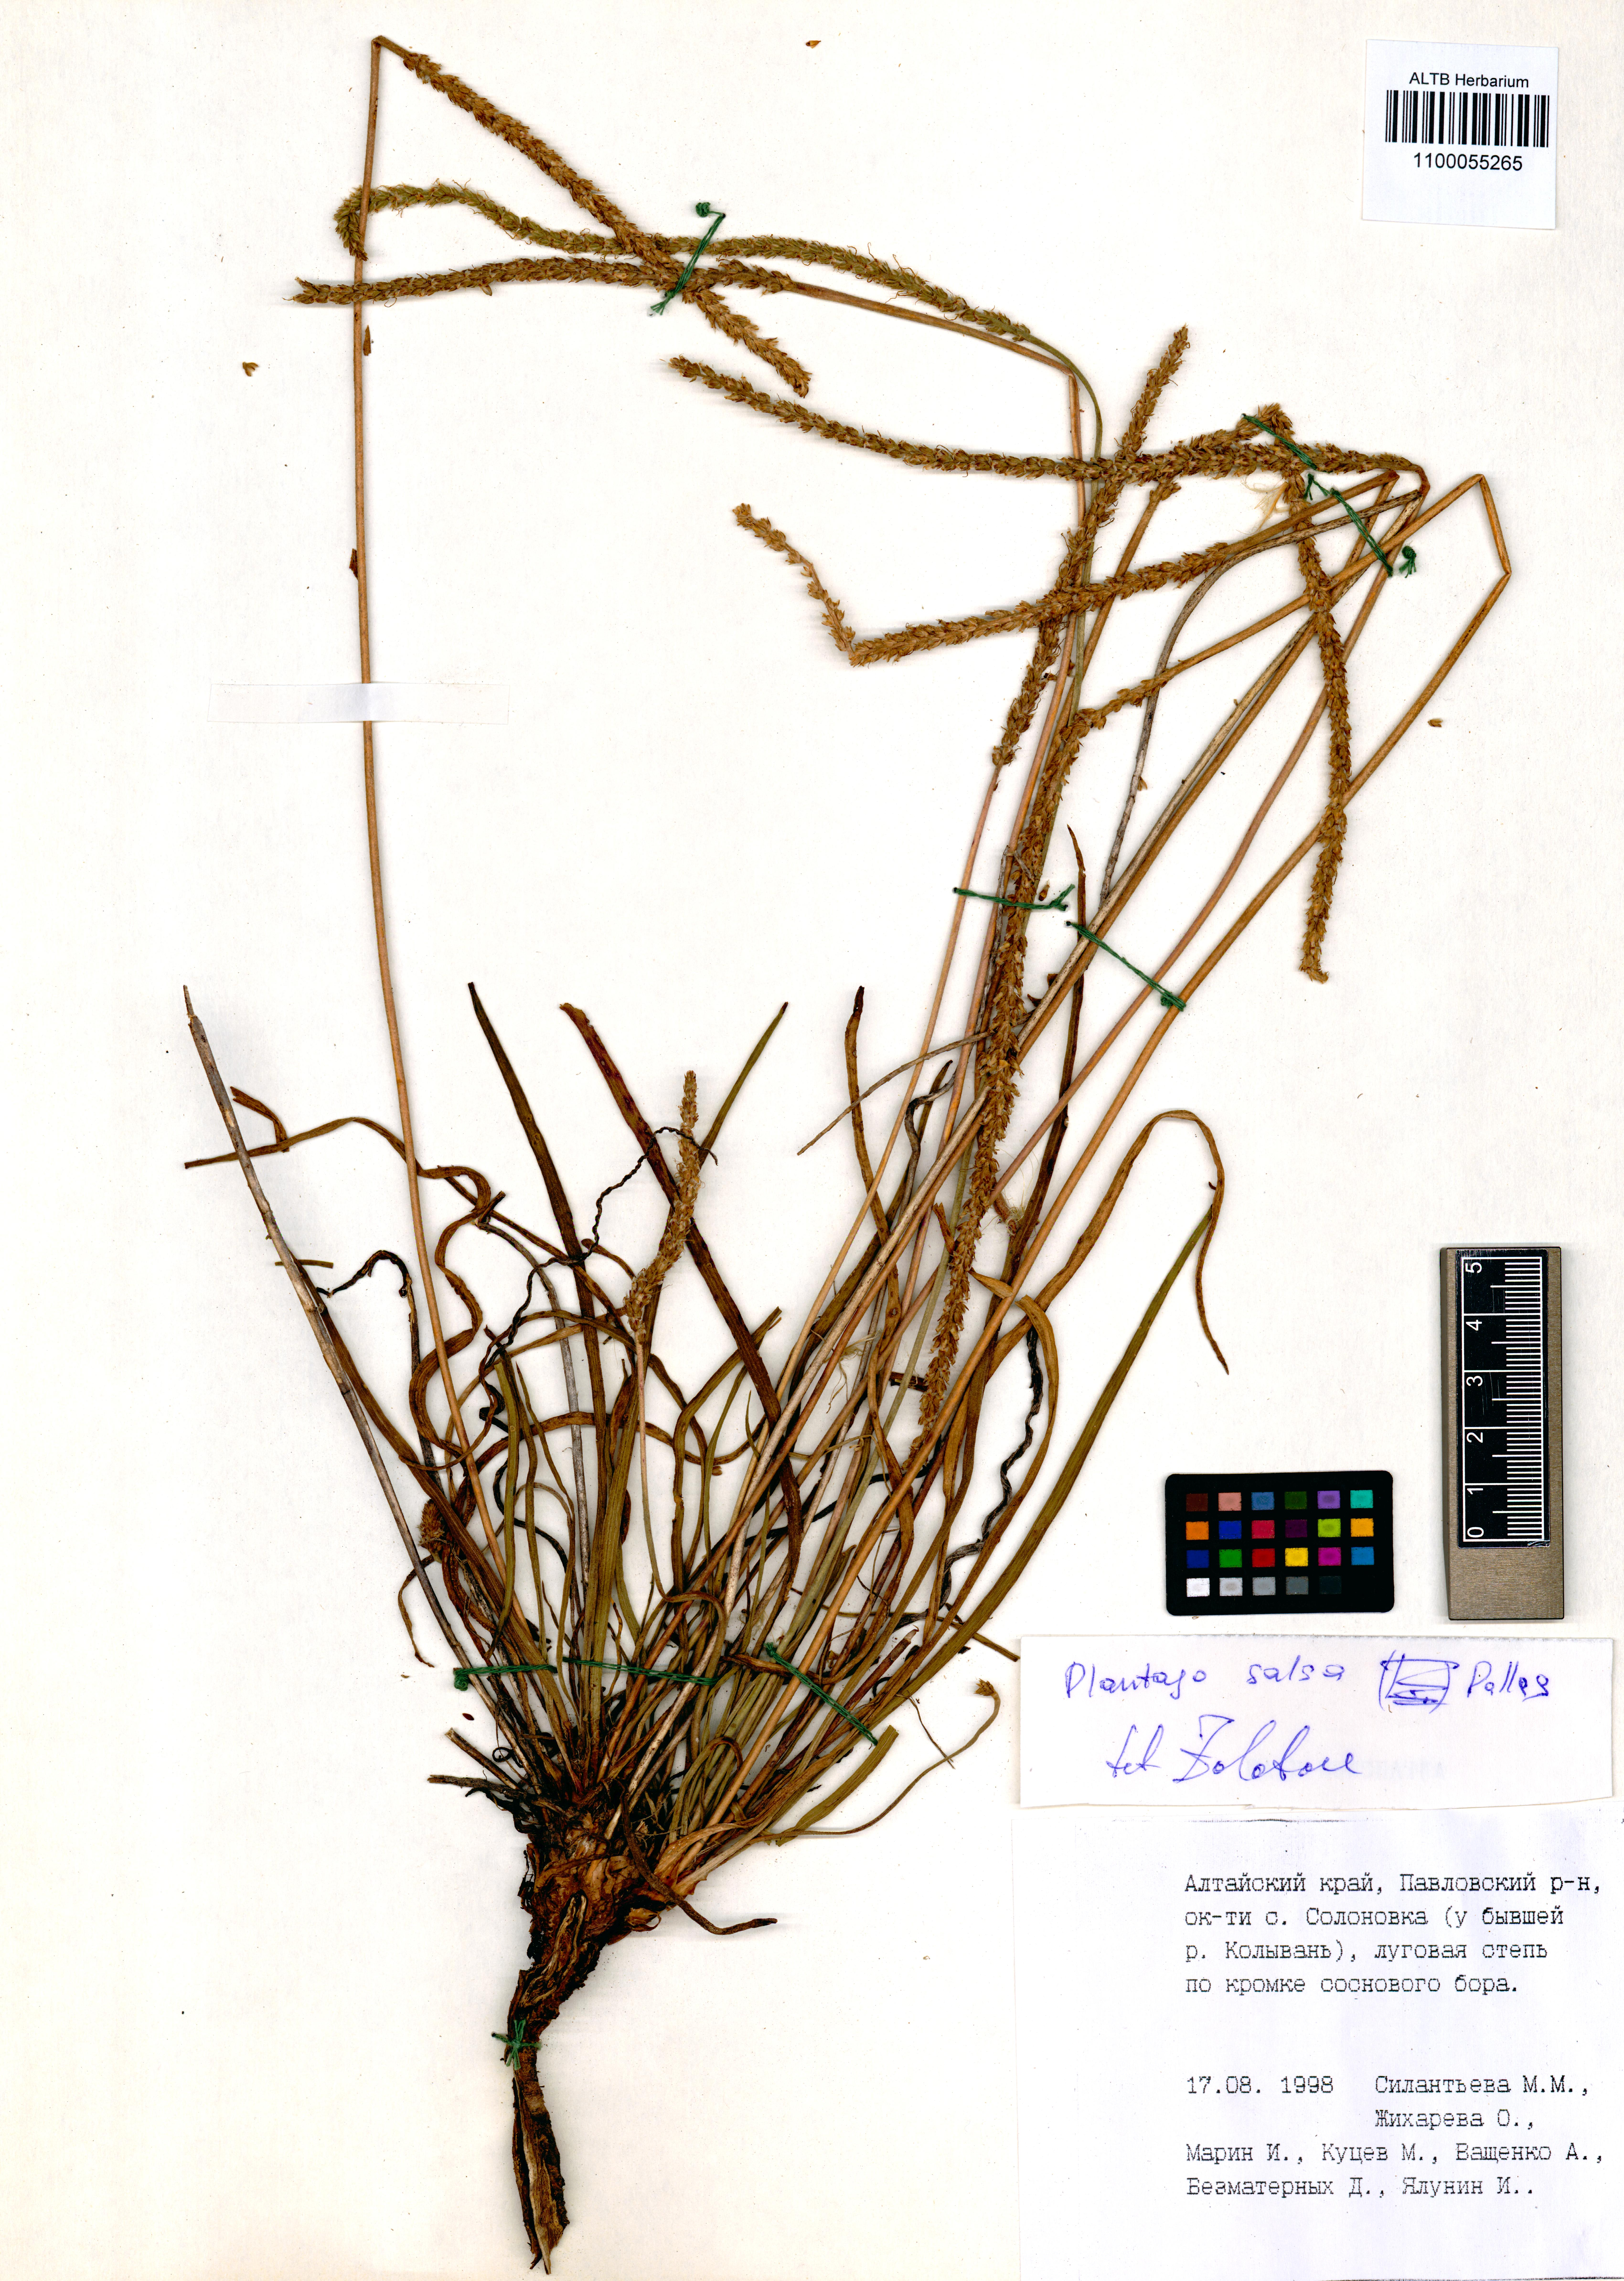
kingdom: Plantae
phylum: Tracheophyta
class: Magnoliopsida
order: Lamiales
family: Plantaginaceae
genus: Plantago
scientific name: Plantago salsa
